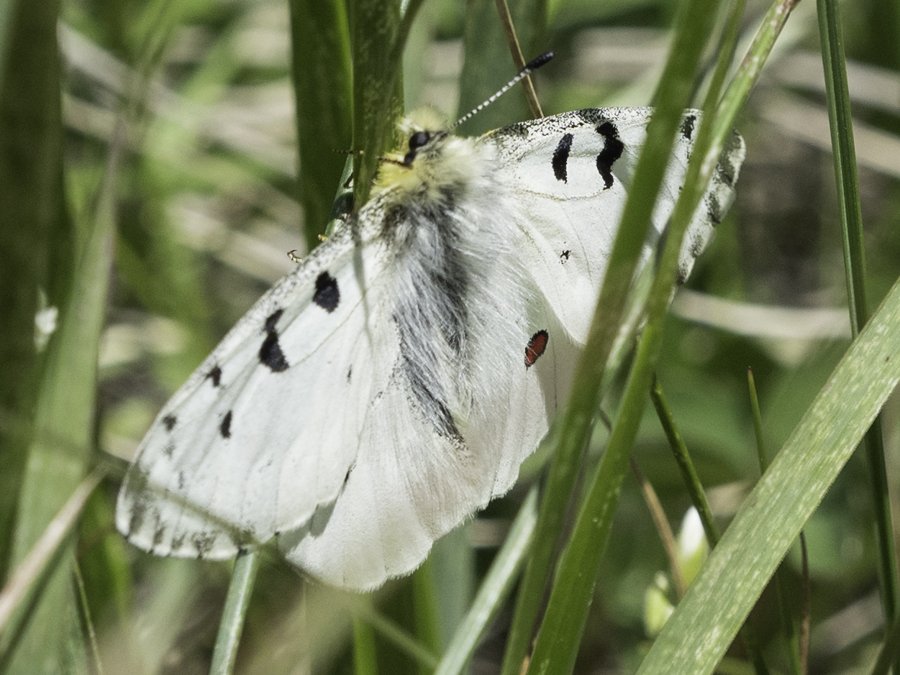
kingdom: Animalia
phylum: Arthropoda
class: Insecta
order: Lepidoptera
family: Papilionidae
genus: Parnassius
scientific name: Parnassius smintheus
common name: Rocky Mountain Parnassian
